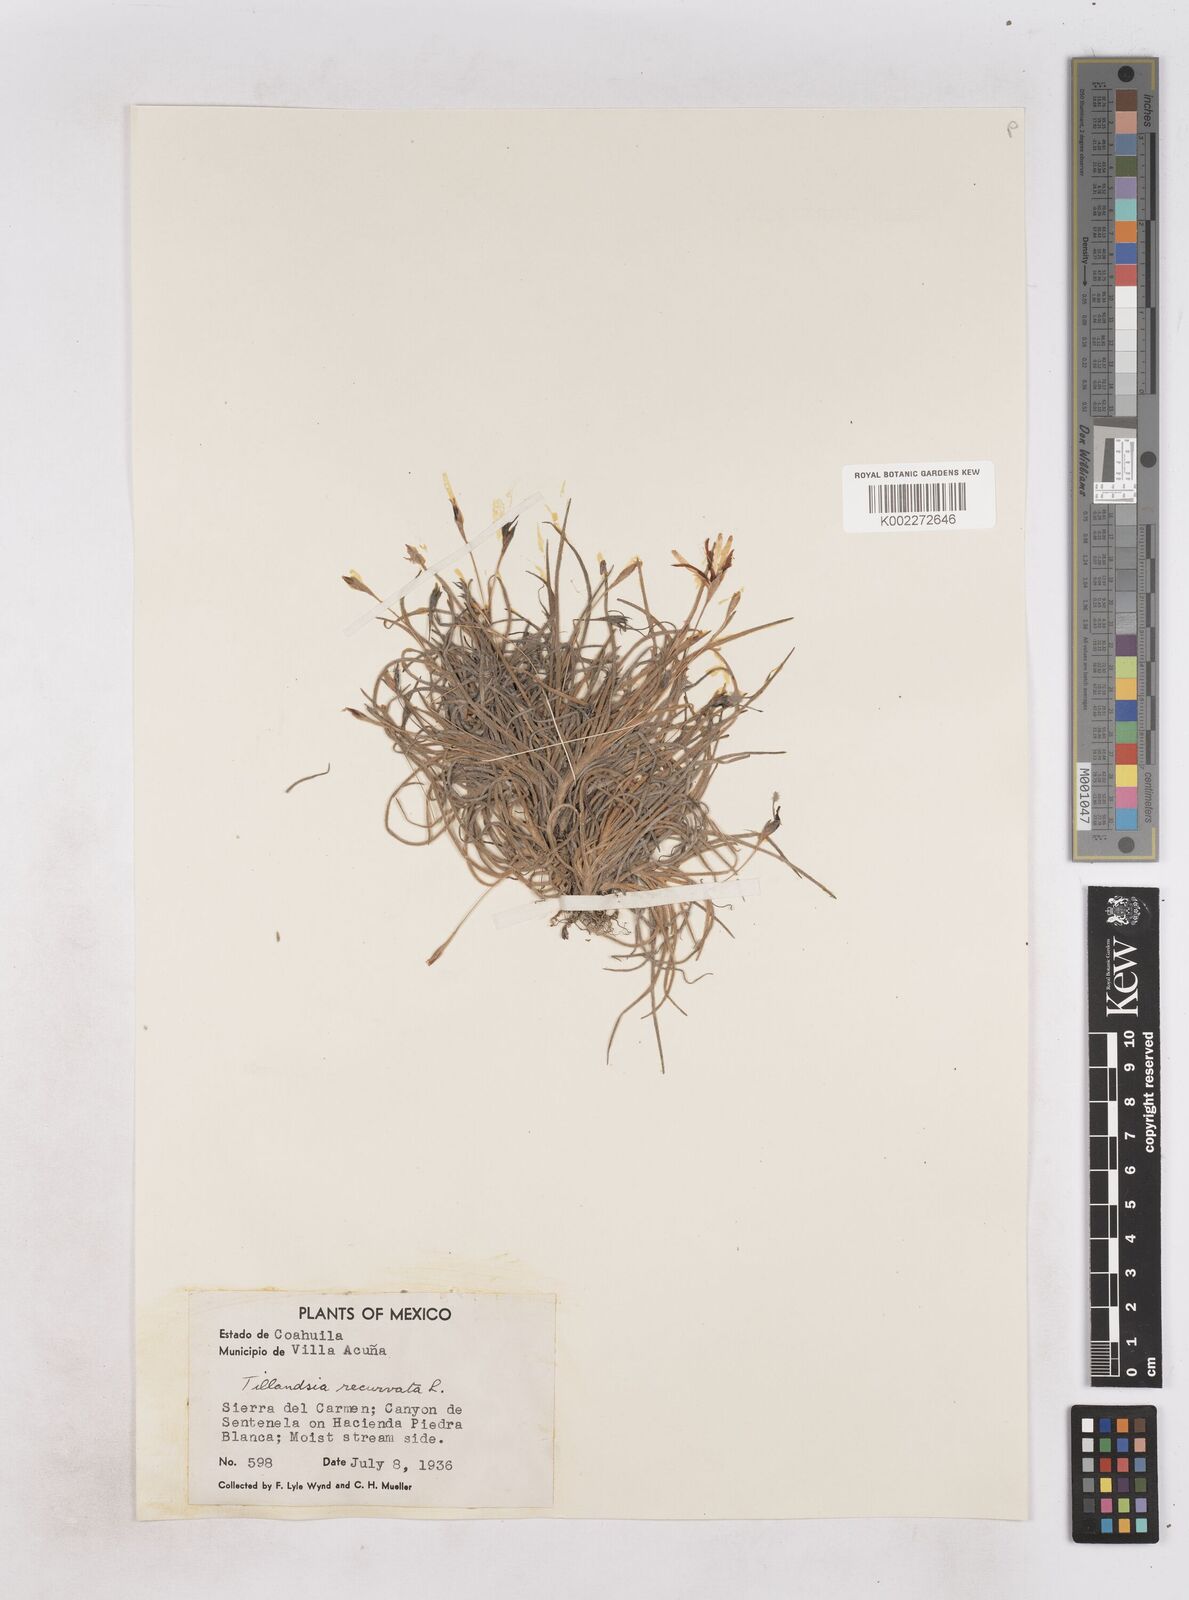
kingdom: Plantae
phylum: Tracheophyta
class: Liliopsida
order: Poales
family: Bromeliaceae
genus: Tillandsia
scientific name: Tillandsia recurvata
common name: Small ballmoss
